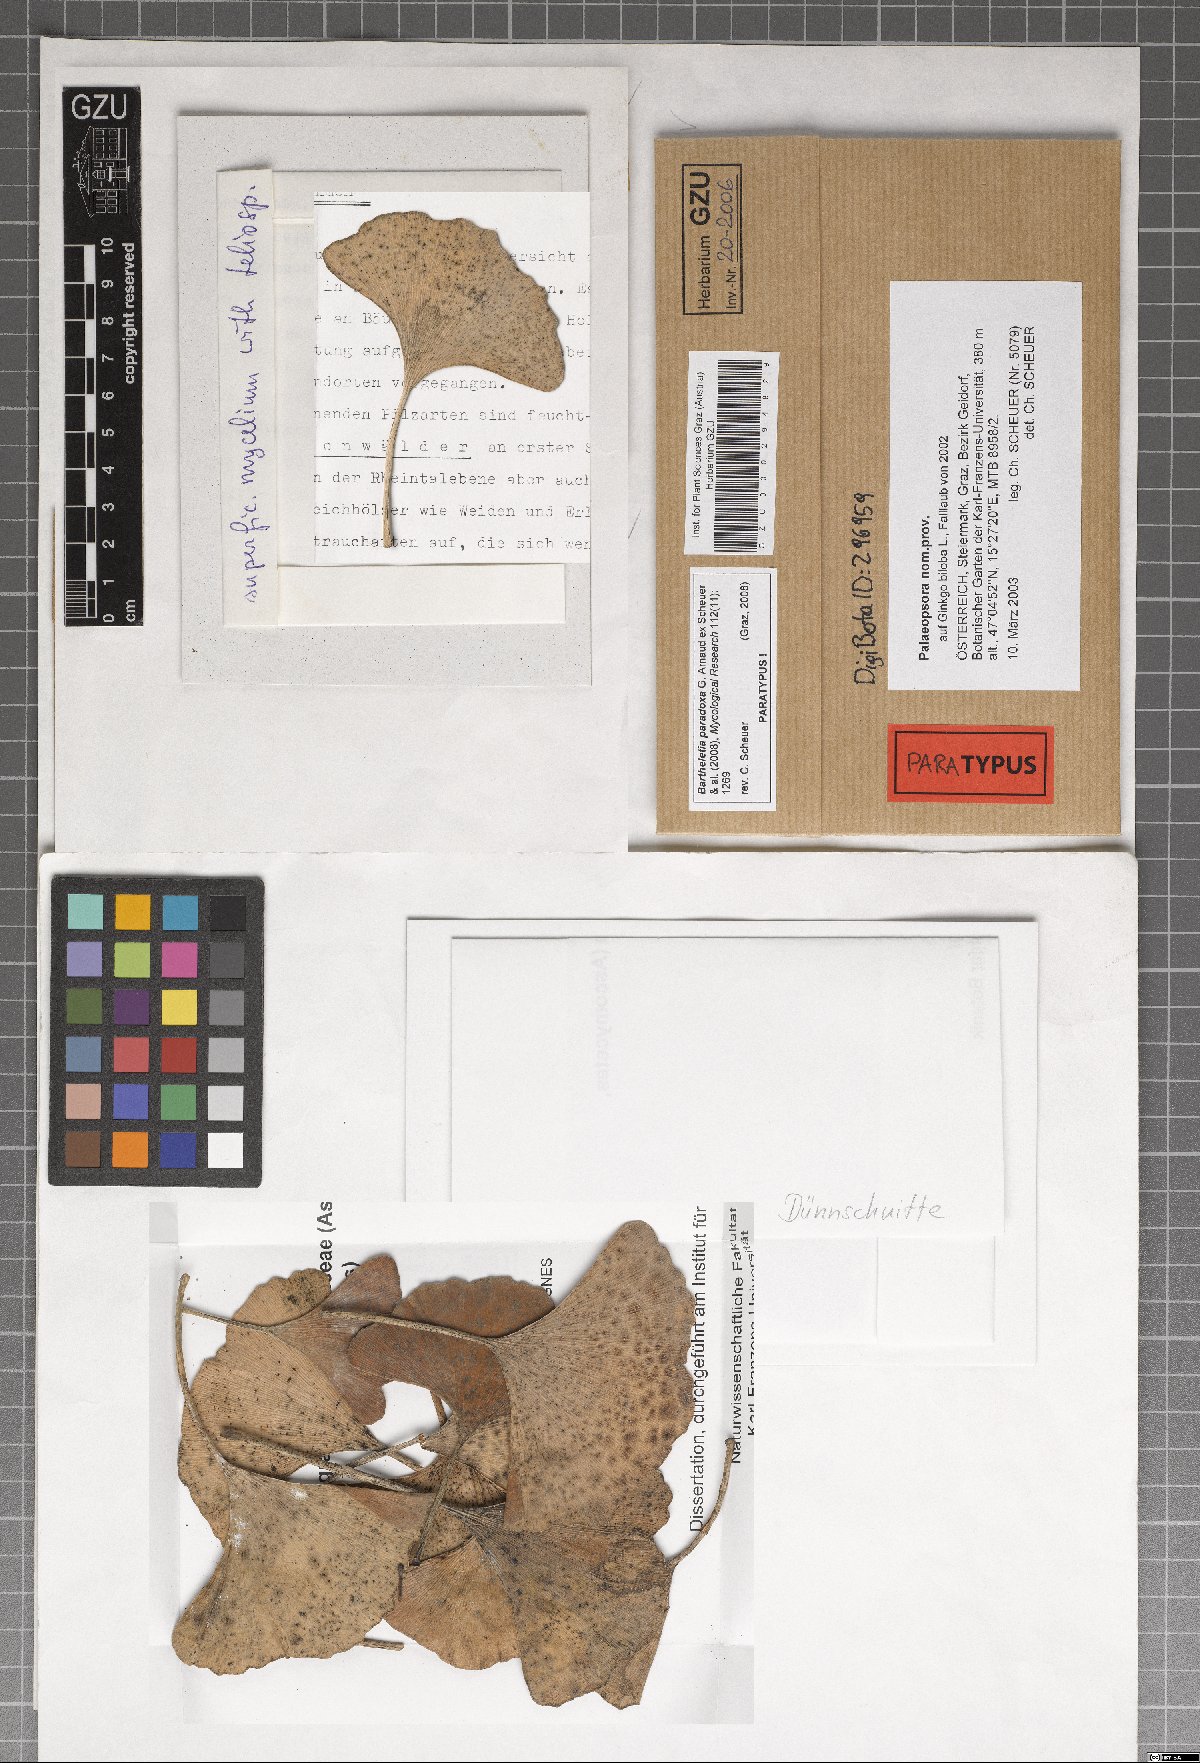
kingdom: Fungi
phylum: Basidiomycota
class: Wallemiomycetes
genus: Bartheletia
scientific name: Bartheletia paradoxa
